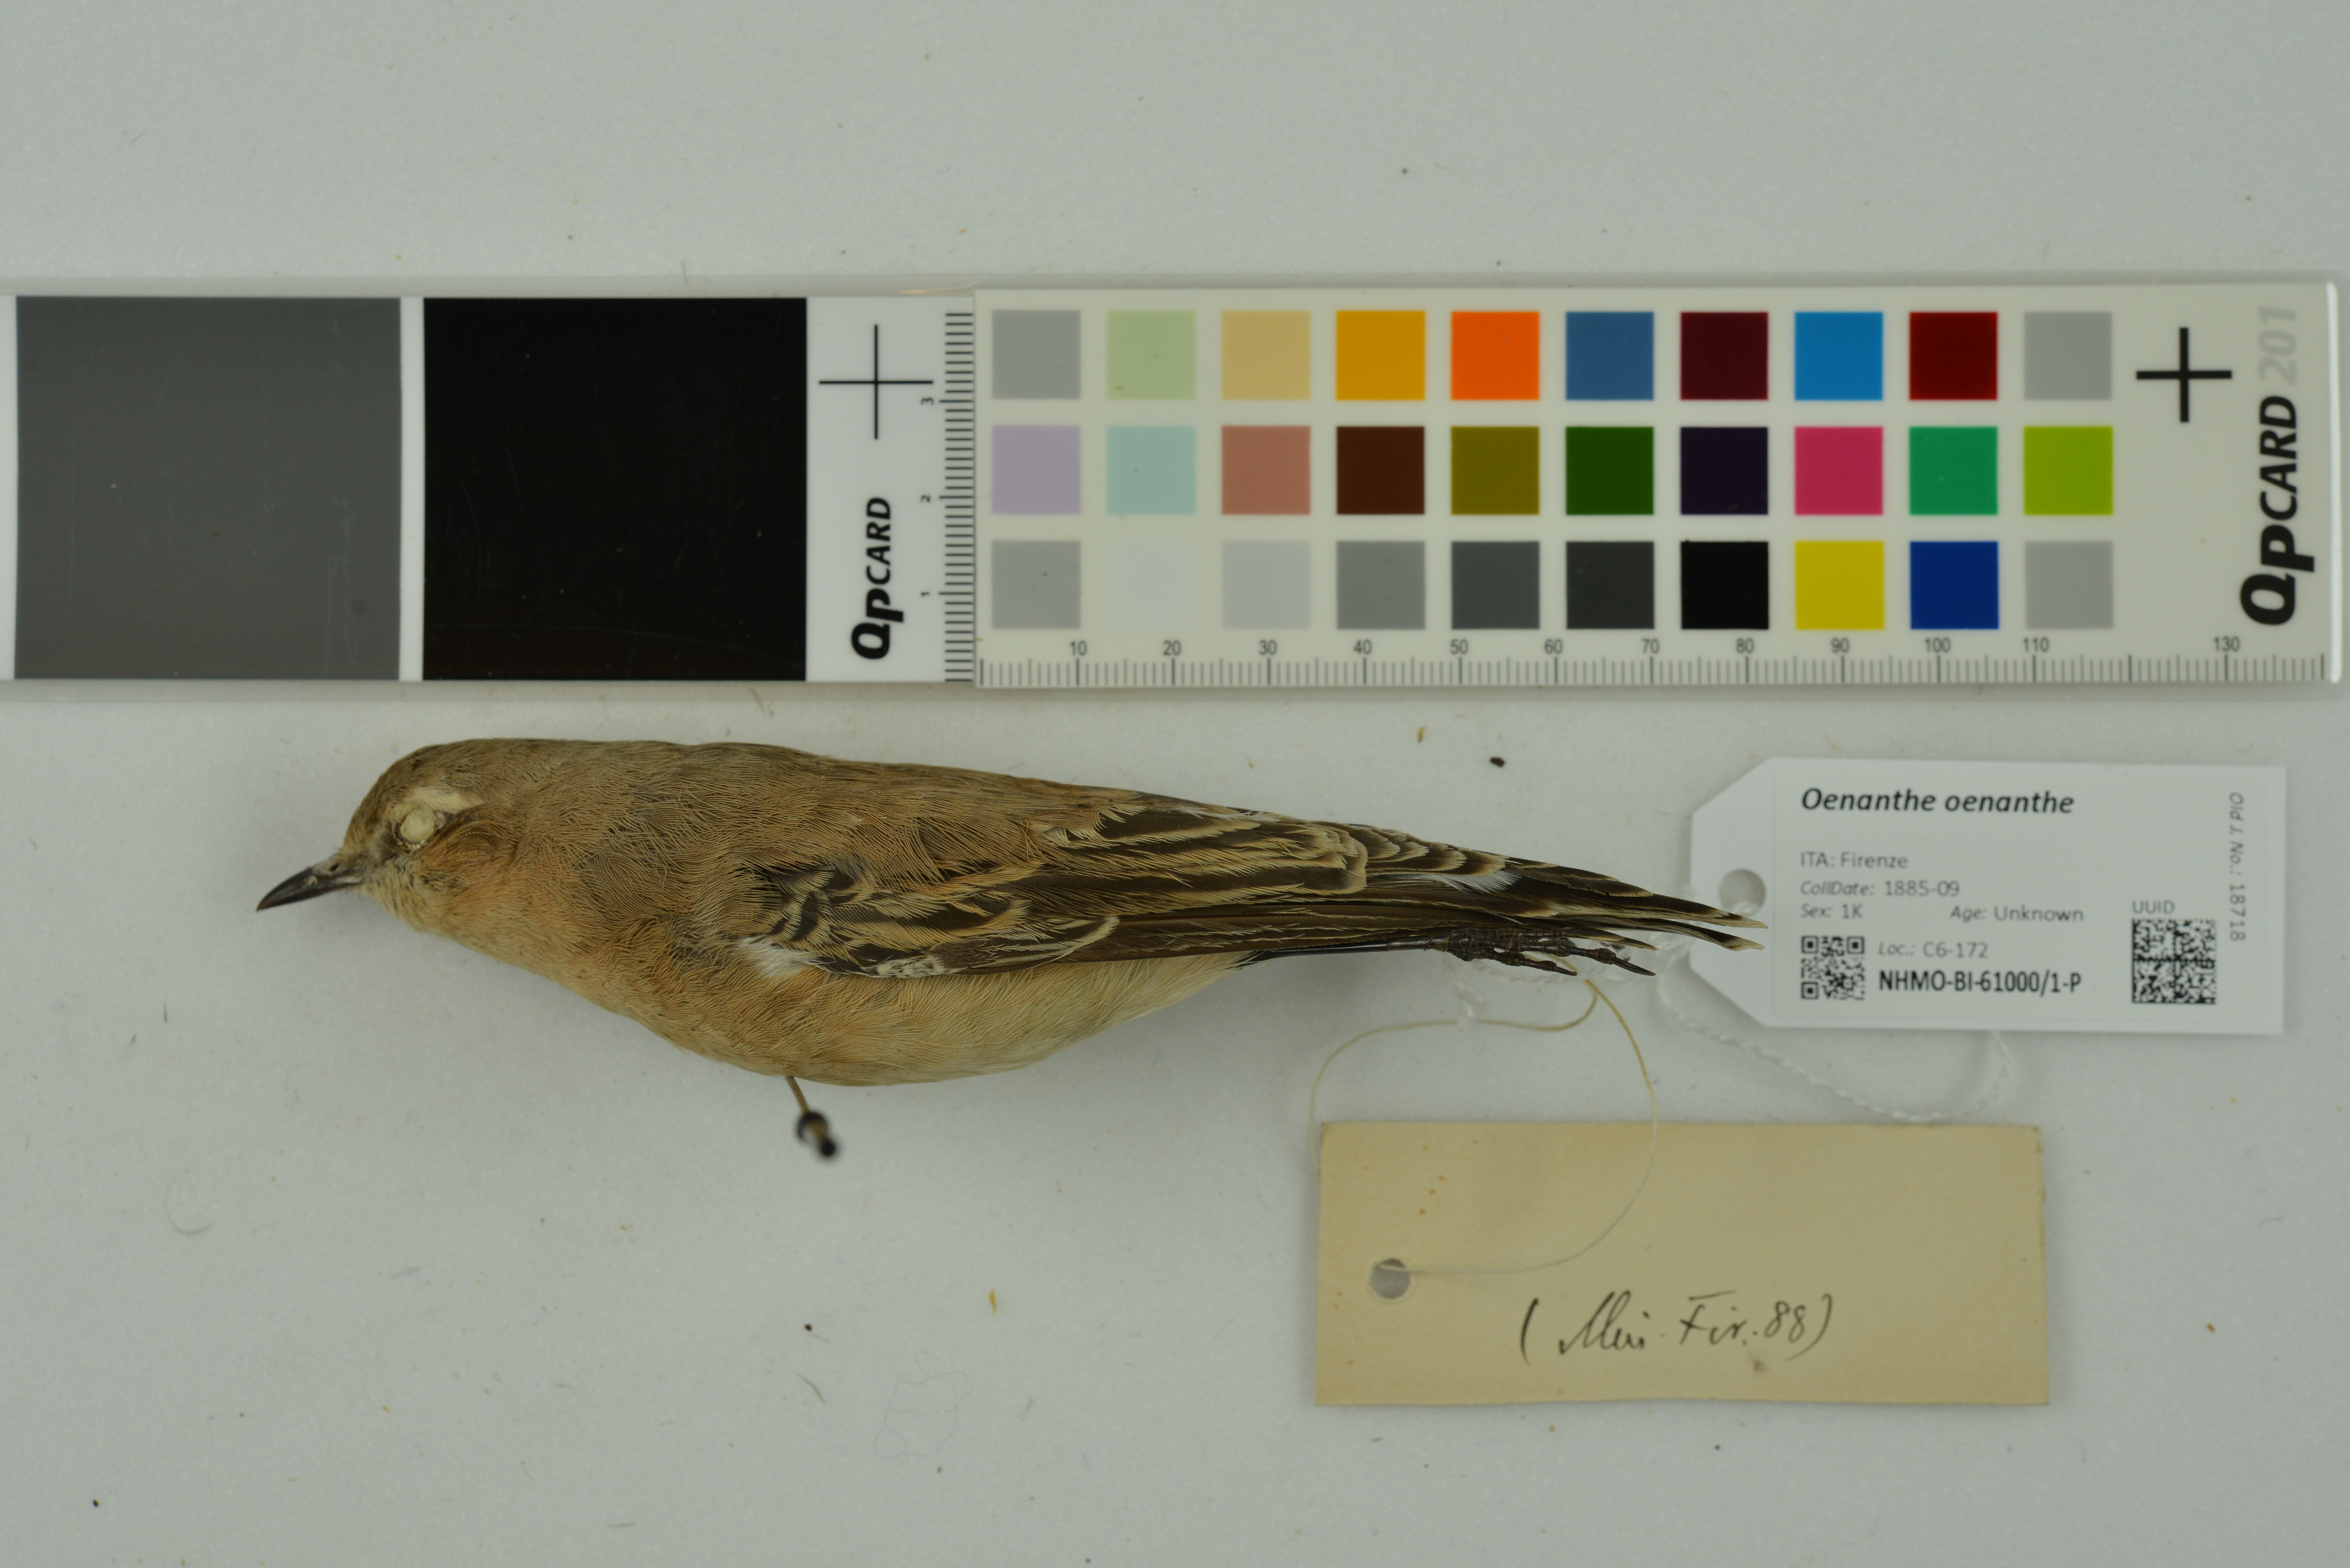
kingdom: Animalia
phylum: Chordata
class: Aves
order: Passeriformes
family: Muscicapidae
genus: Oenanthe
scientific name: Oenanthe oenanthe
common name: Northern wheatear
